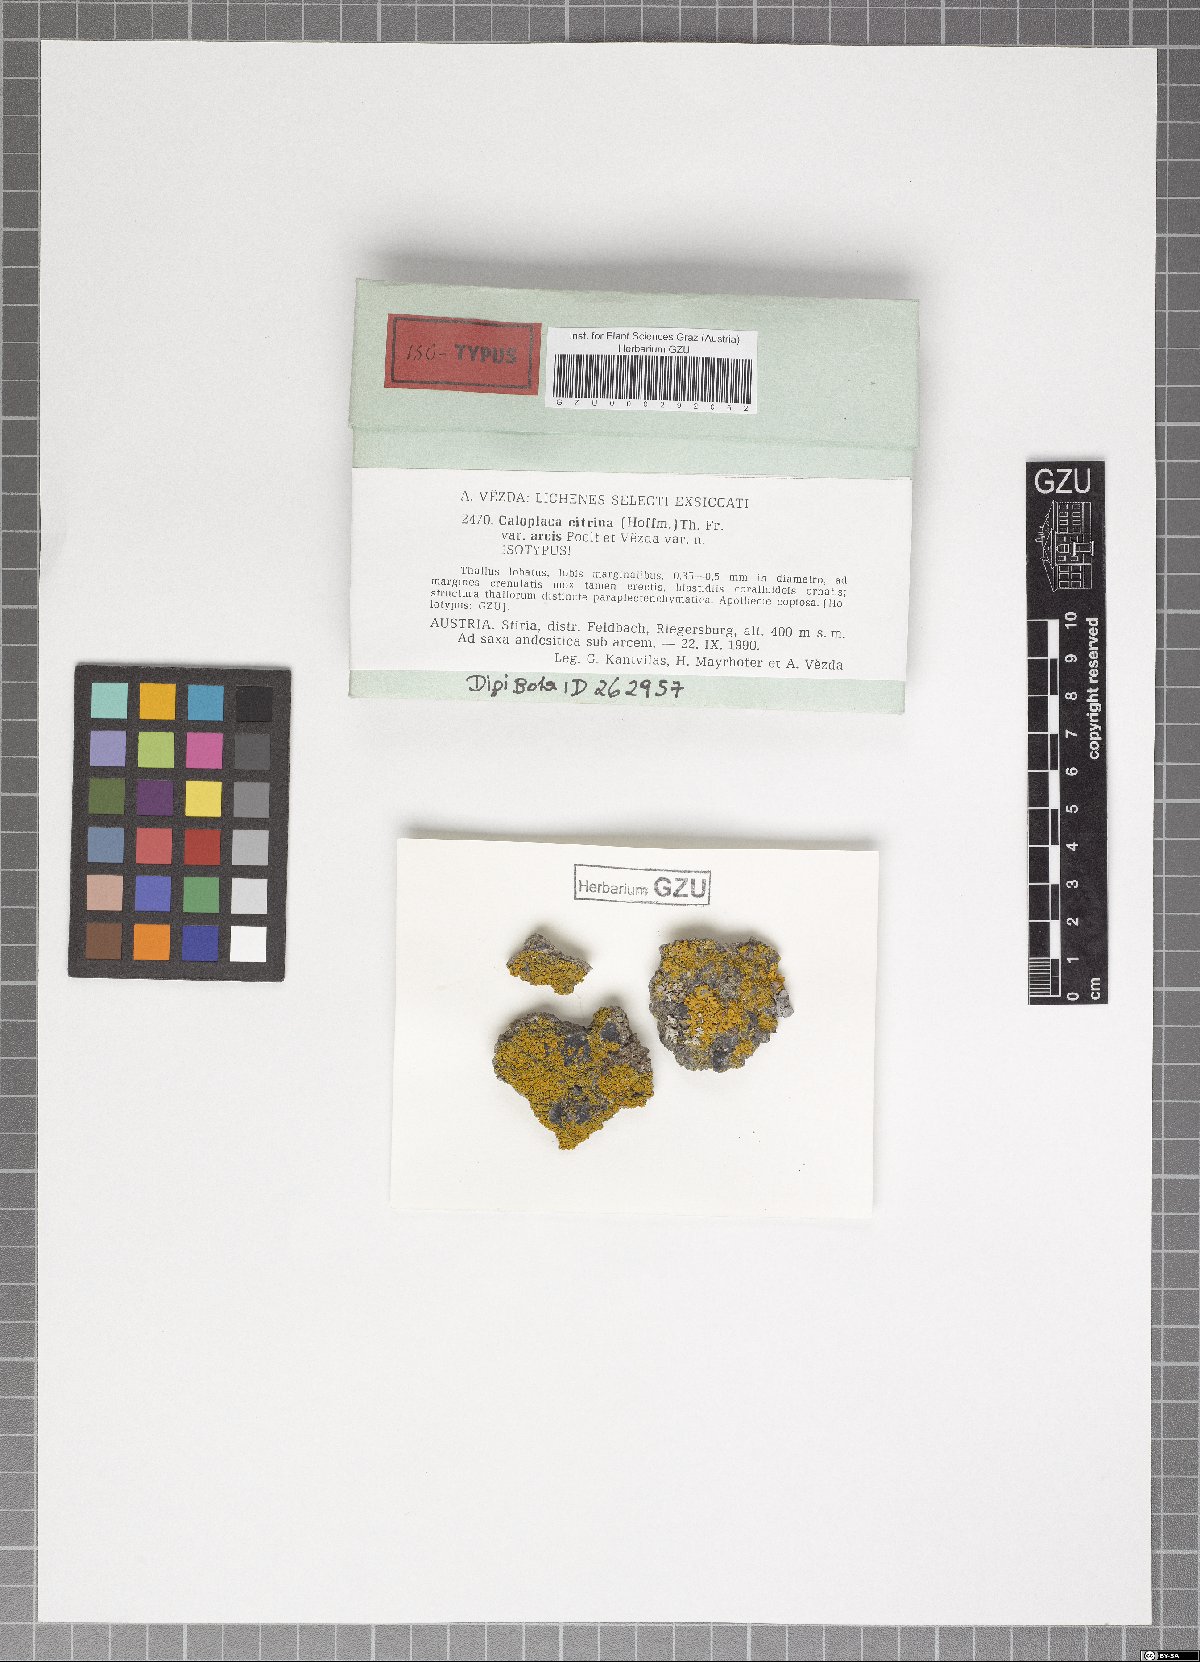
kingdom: Fungi
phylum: Ascomycota
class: Lecanoromycetes
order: Teloschistales
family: Teloschistaceae
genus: Flavoplaca
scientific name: Flavoplaca arcis
